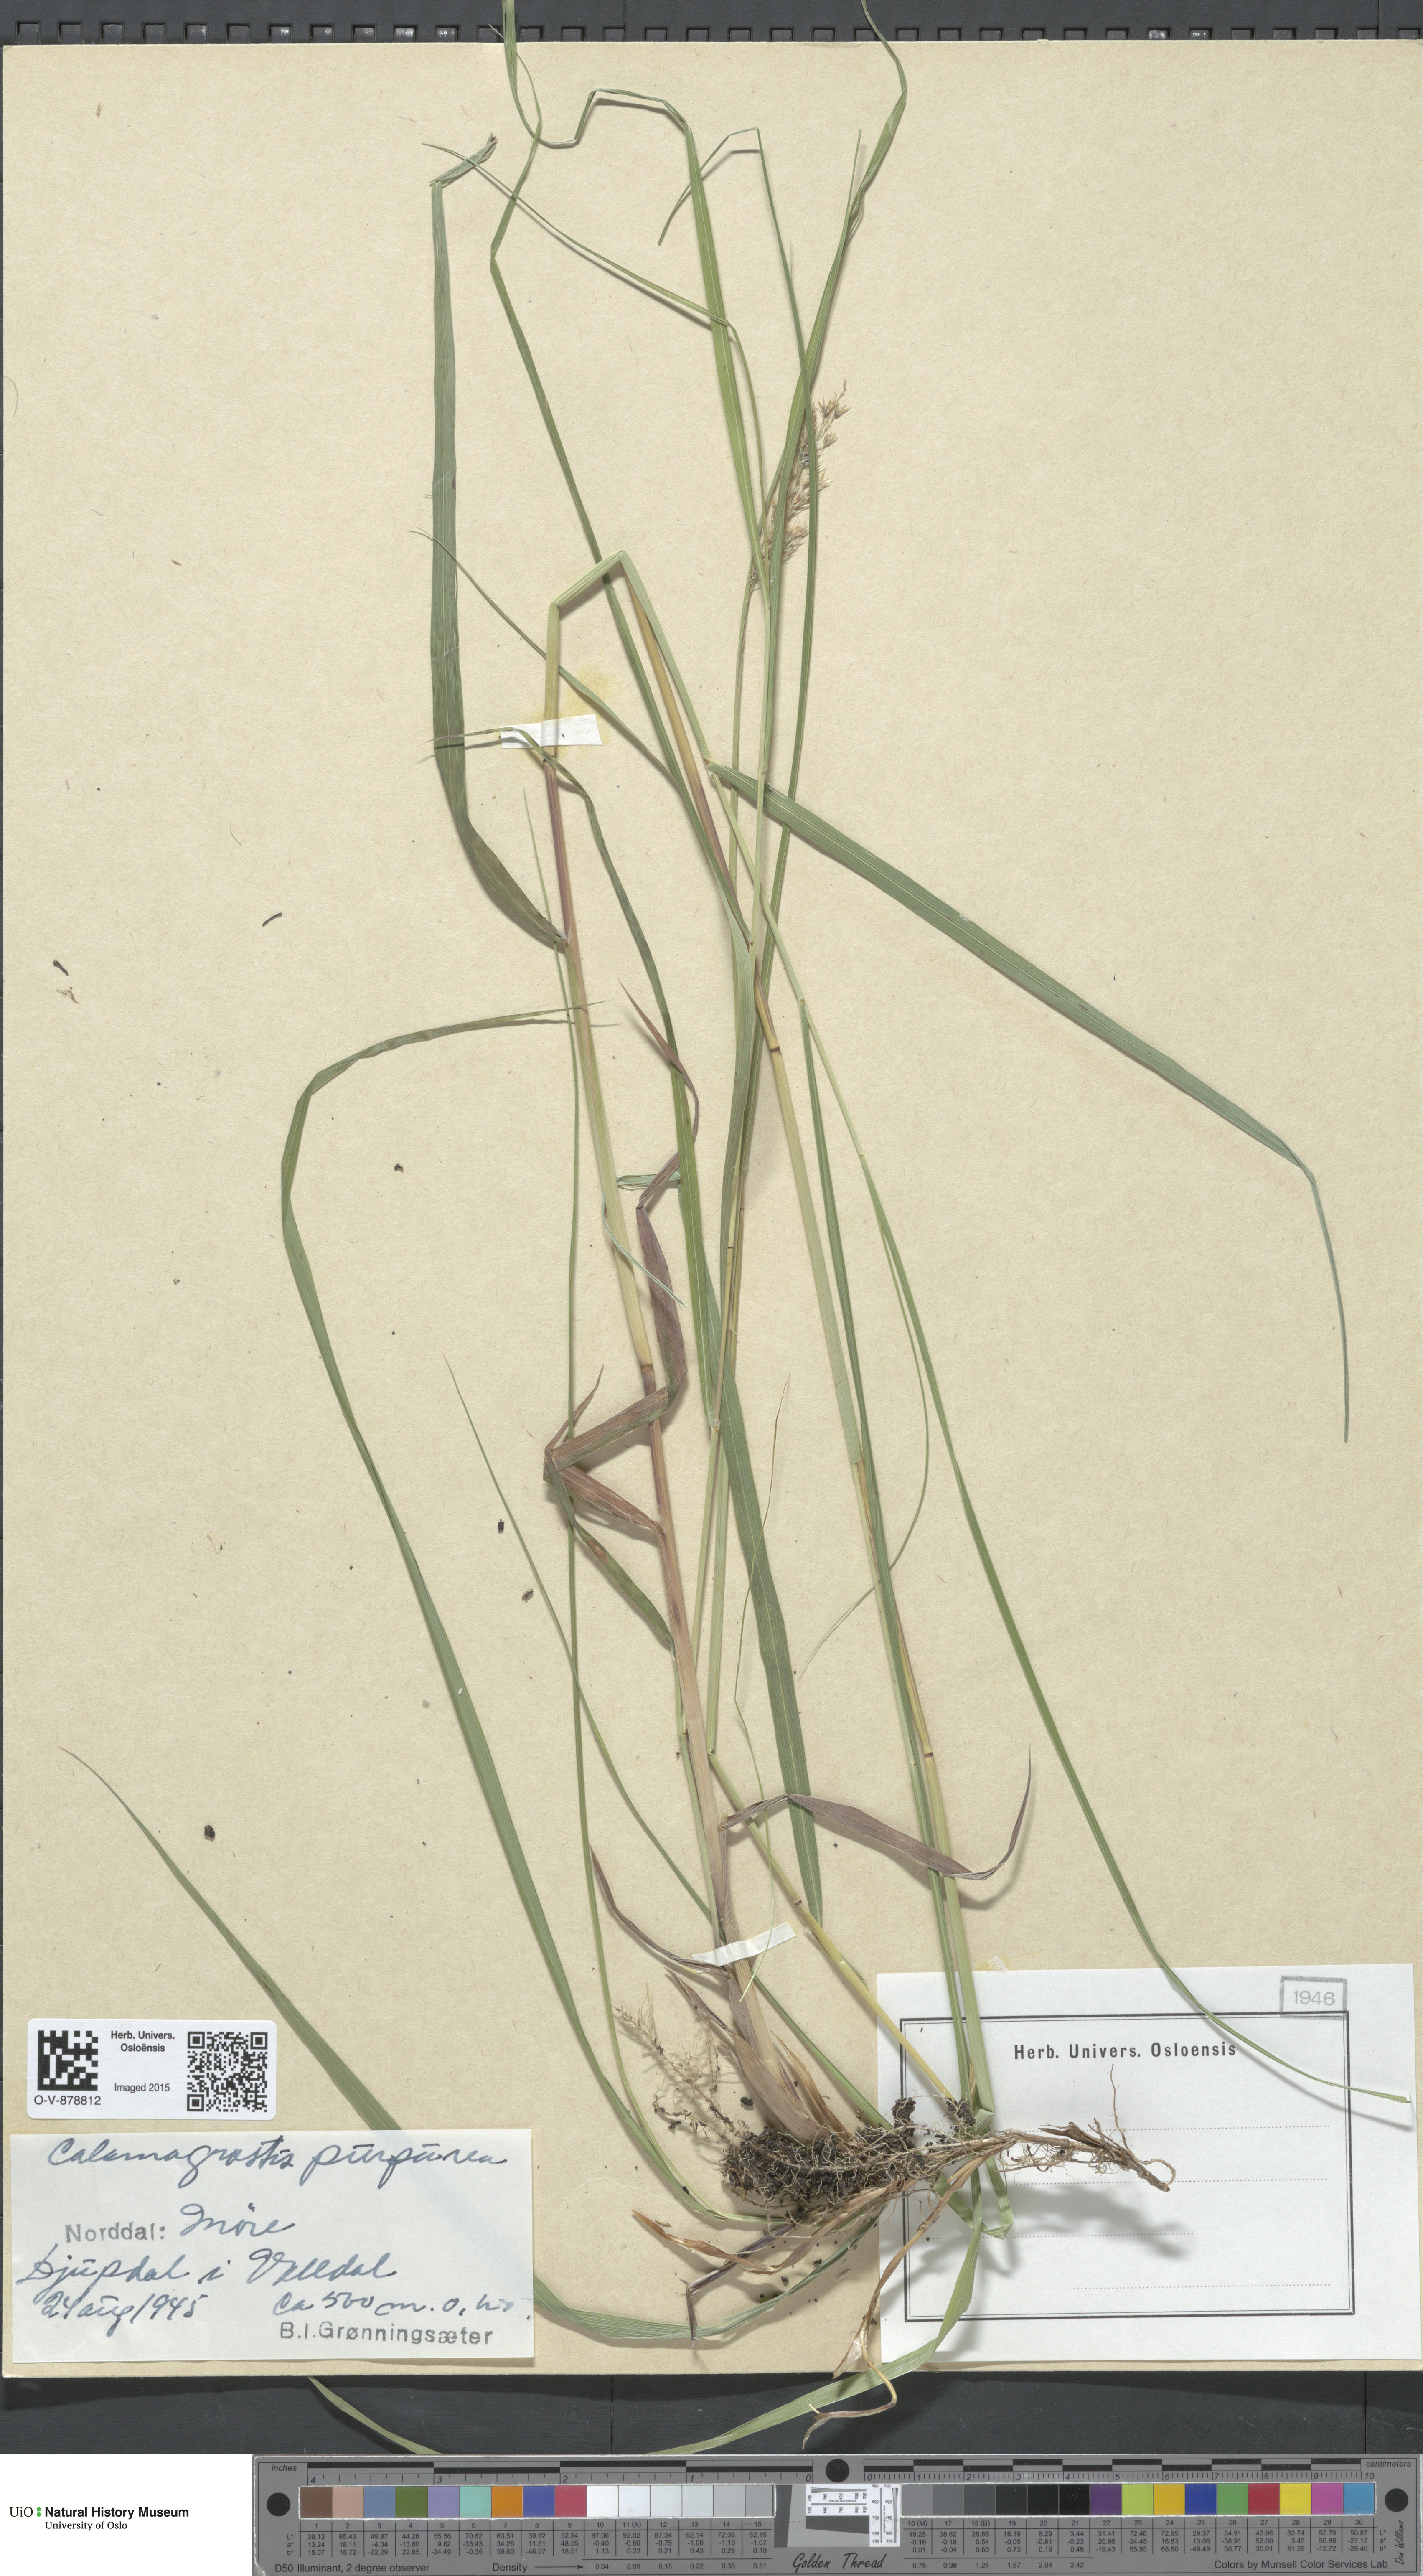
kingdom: Plantae
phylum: Tracheophyta
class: Liliopsida
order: Poales
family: Poaceae
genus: Calamagrostis
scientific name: Calamagrostis purpurea
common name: Scandinavian small-reed
